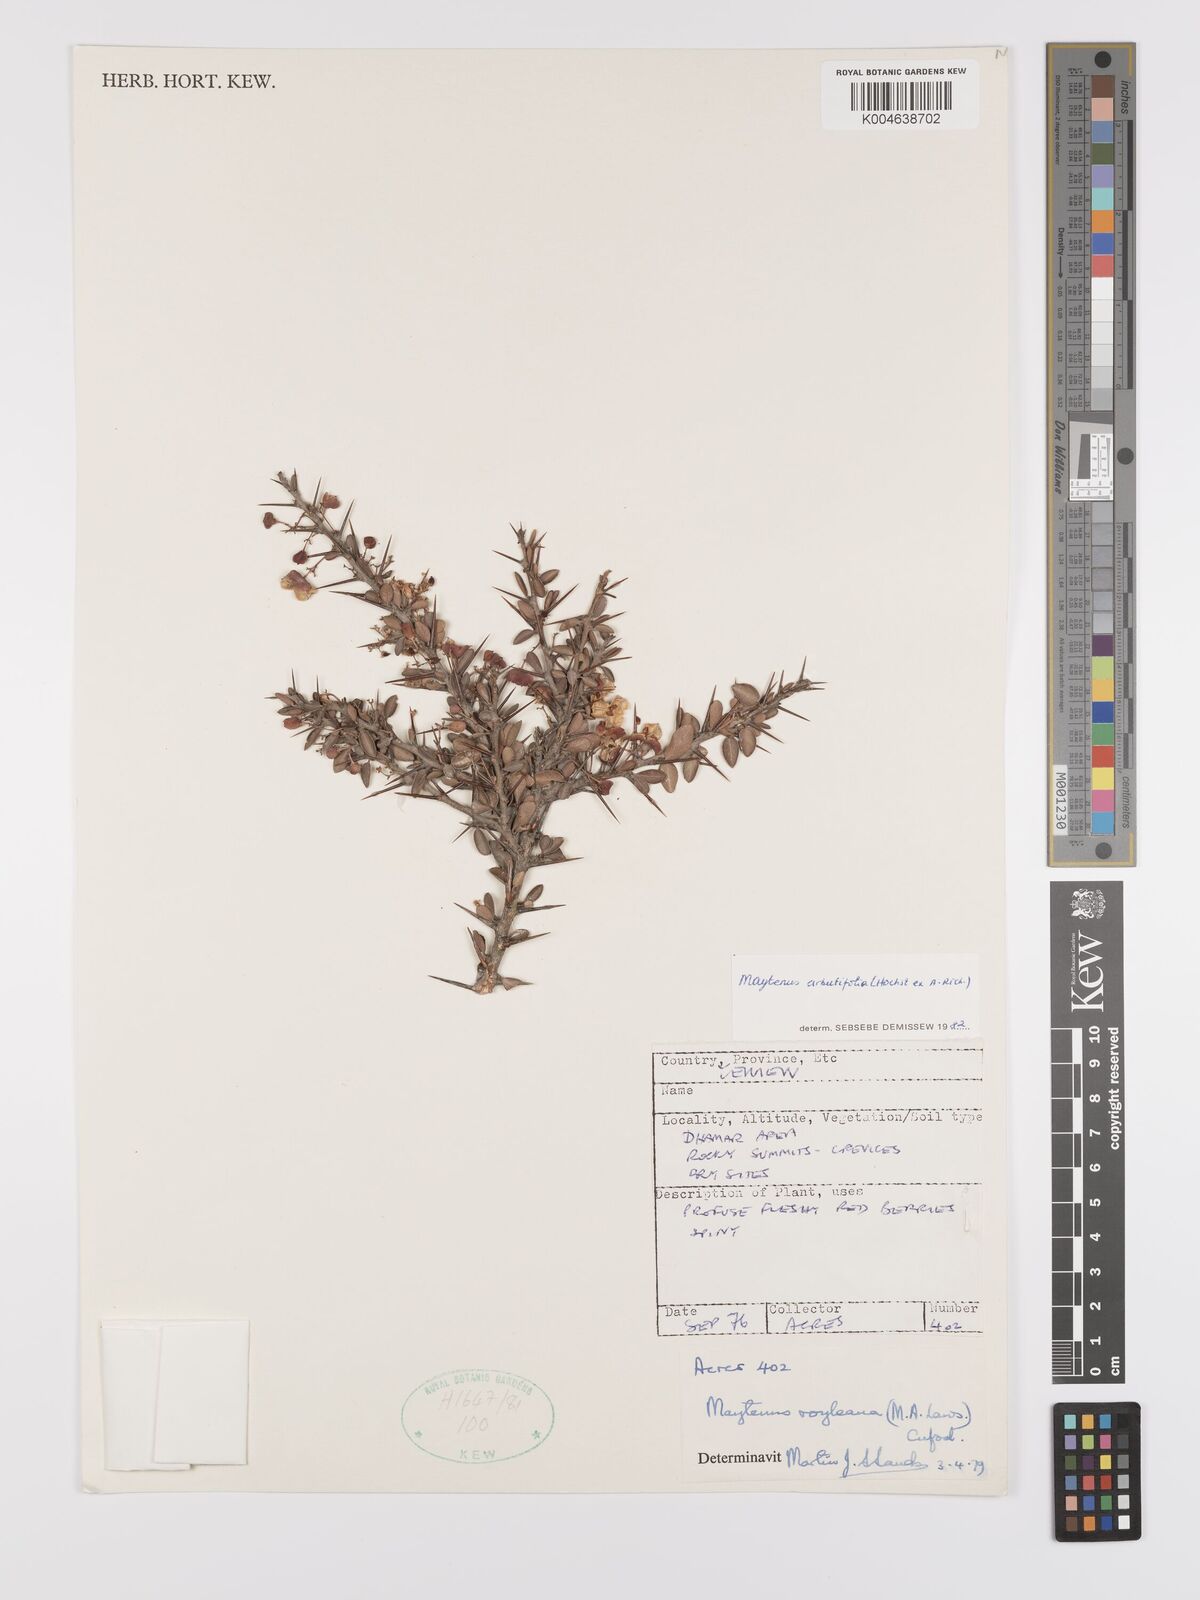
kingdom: Plantae
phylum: Tracheophyta
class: Magnoliopsida
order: Celastrales
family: Celastraceae
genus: Gymnosporia
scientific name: Gymnosporia arbutifolia
